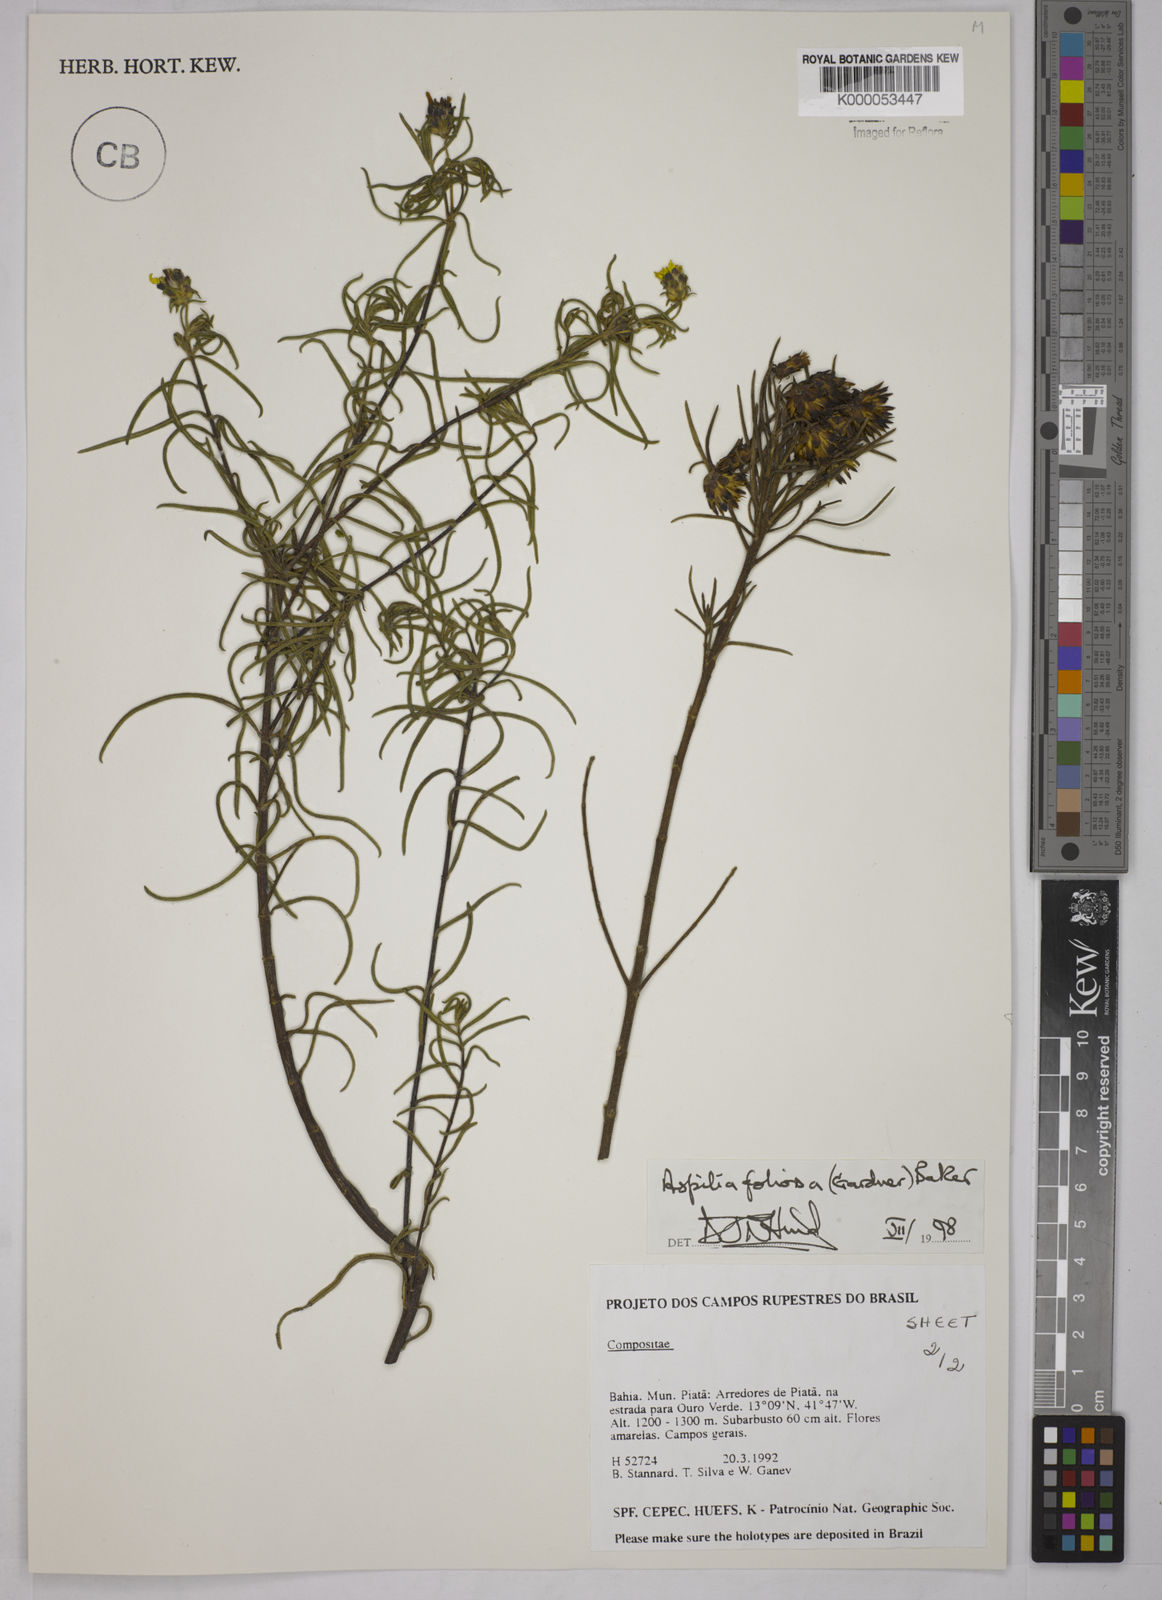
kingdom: Plantae
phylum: Tracheophyta
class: Magnoliopsida
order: Asterales
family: Asteraceae
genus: Aspilia
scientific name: Aspilia
